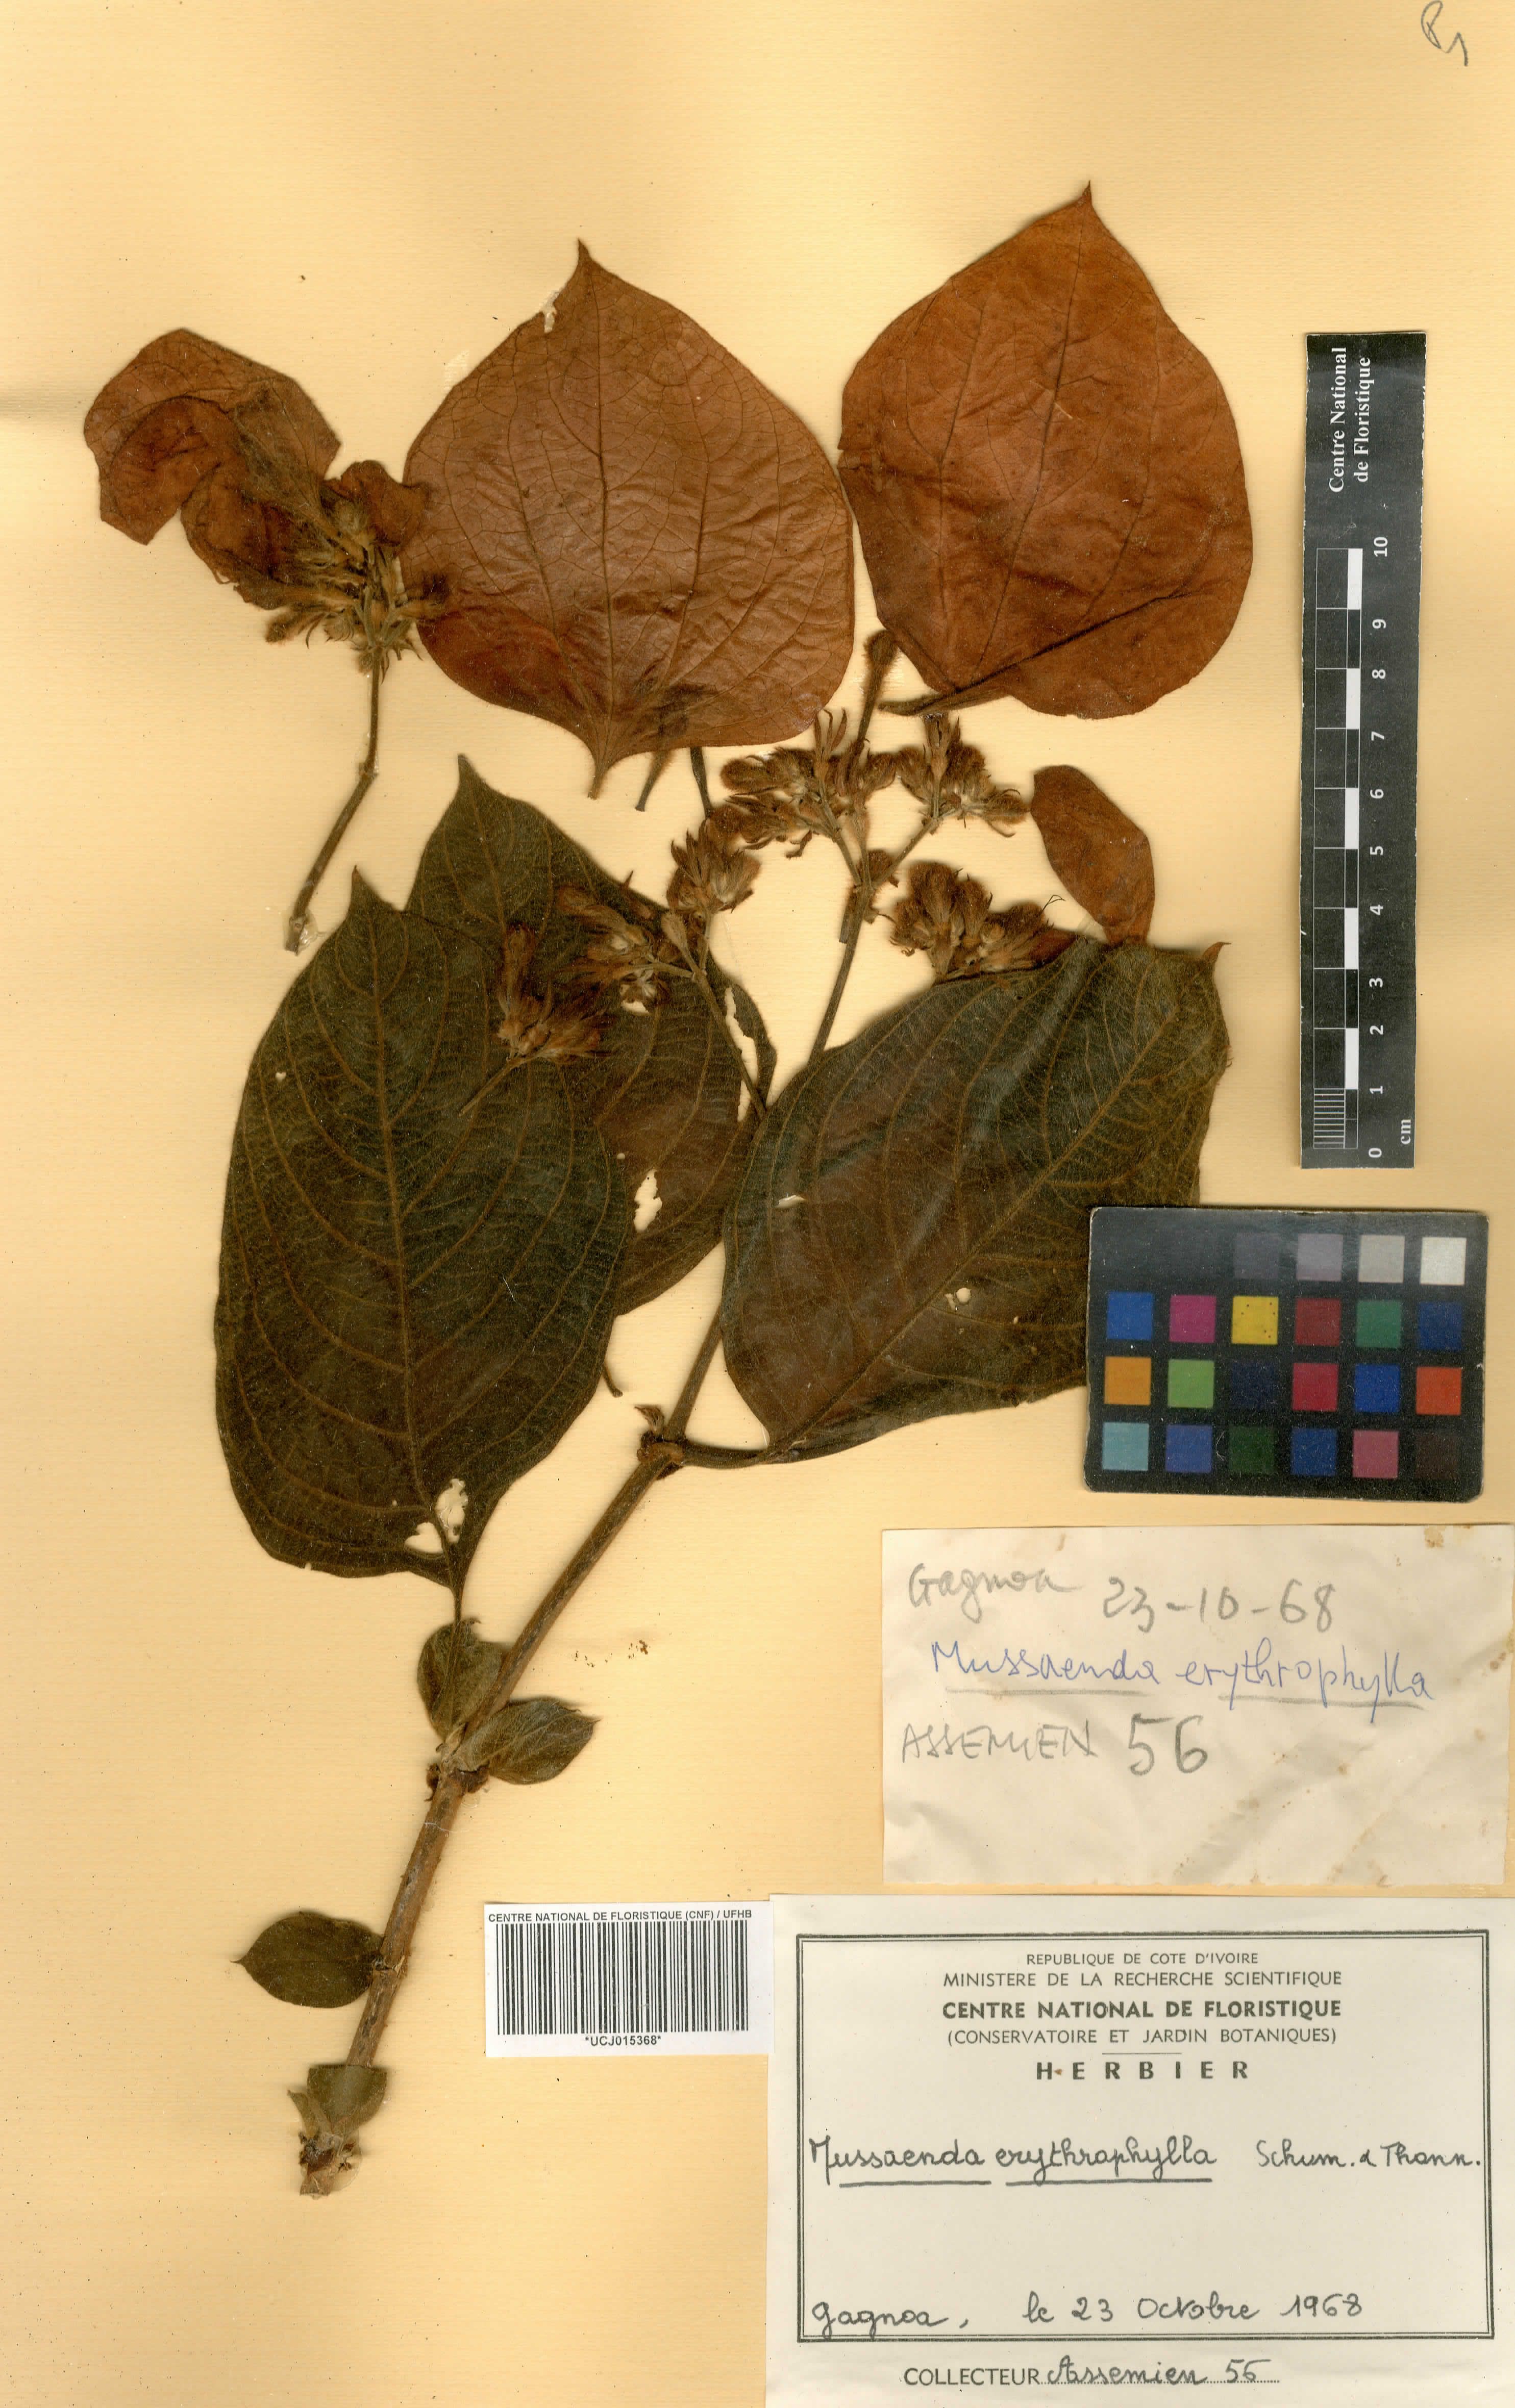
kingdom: Plantae
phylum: Tracheophyta
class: Magnoliopsida
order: Gentianales
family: Rubiaceae
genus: Mussaenda
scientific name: Mussaenda erythrophylla
